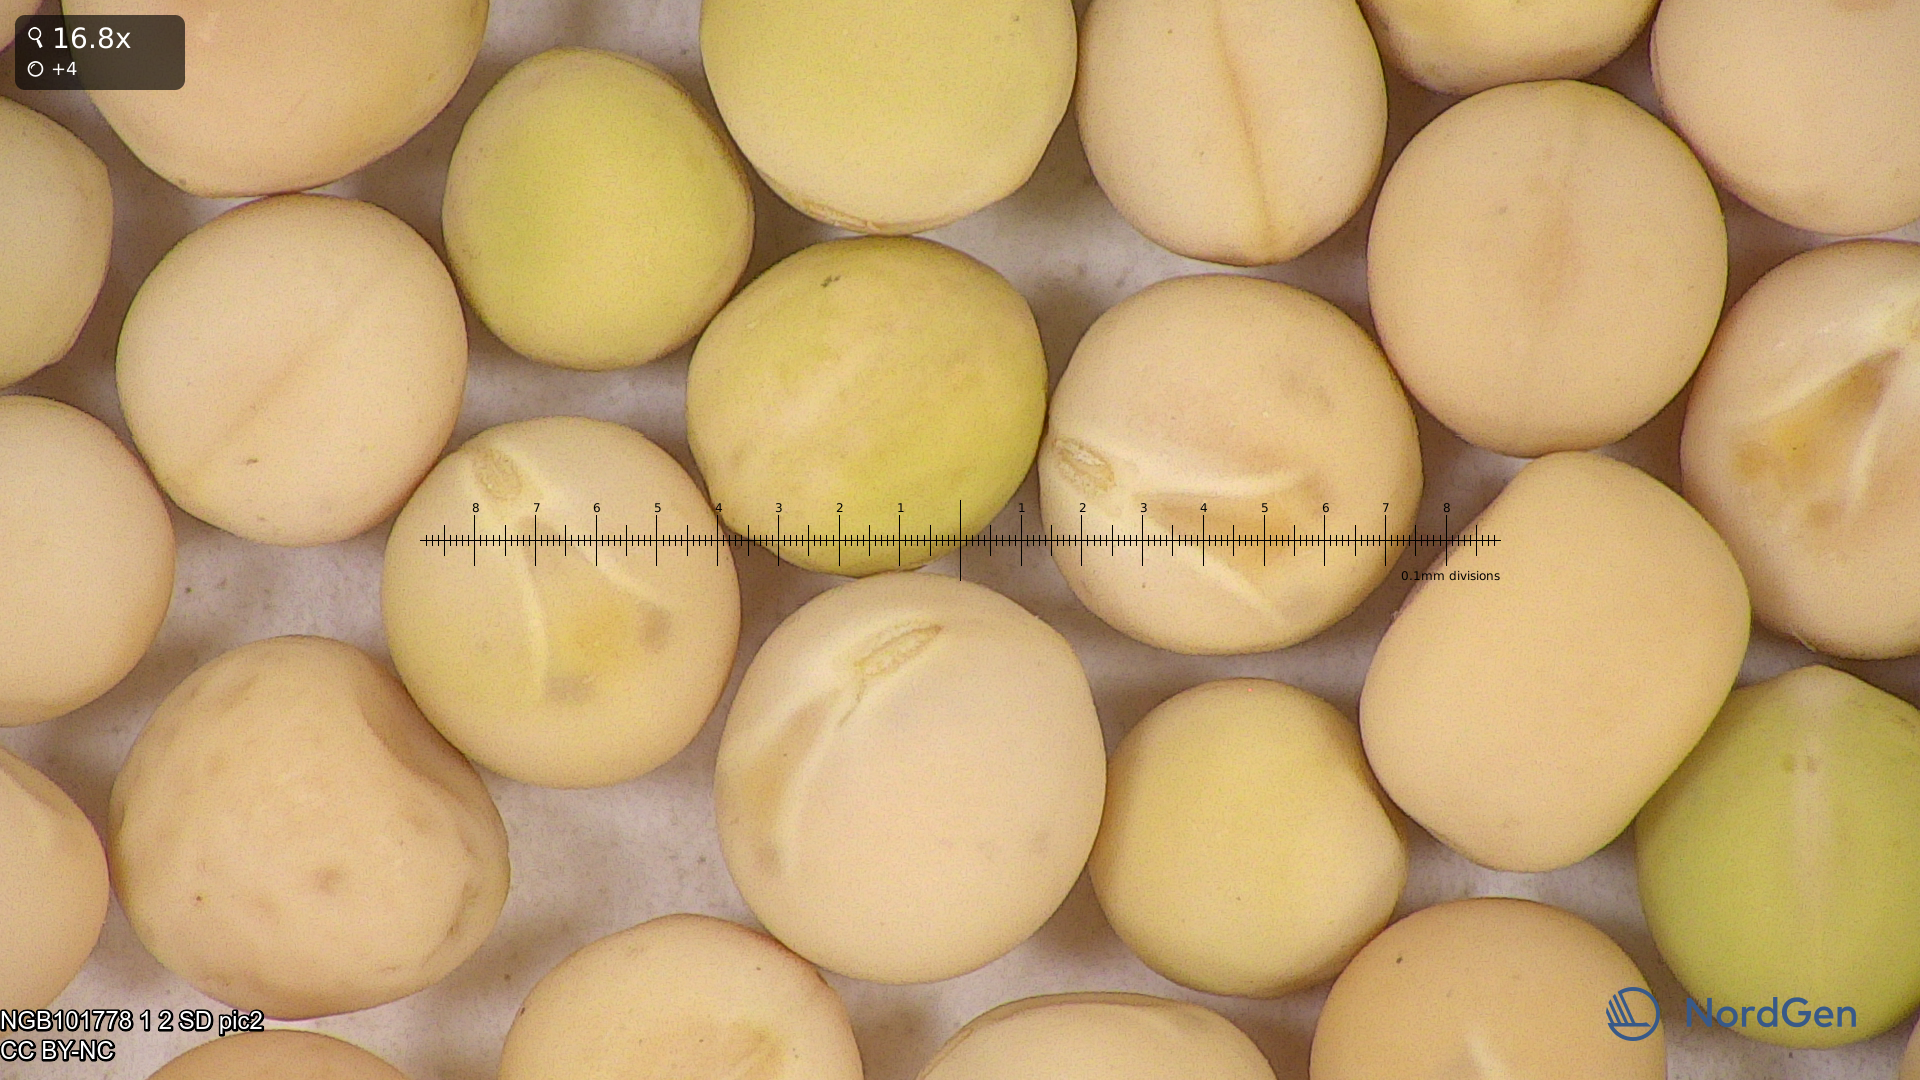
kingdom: Plantae
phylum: Tracheophyta
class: Magnoliopsida
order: Fabales
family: Fabaceae
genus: Lathyrus
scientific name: Lathyrus oleraceus
